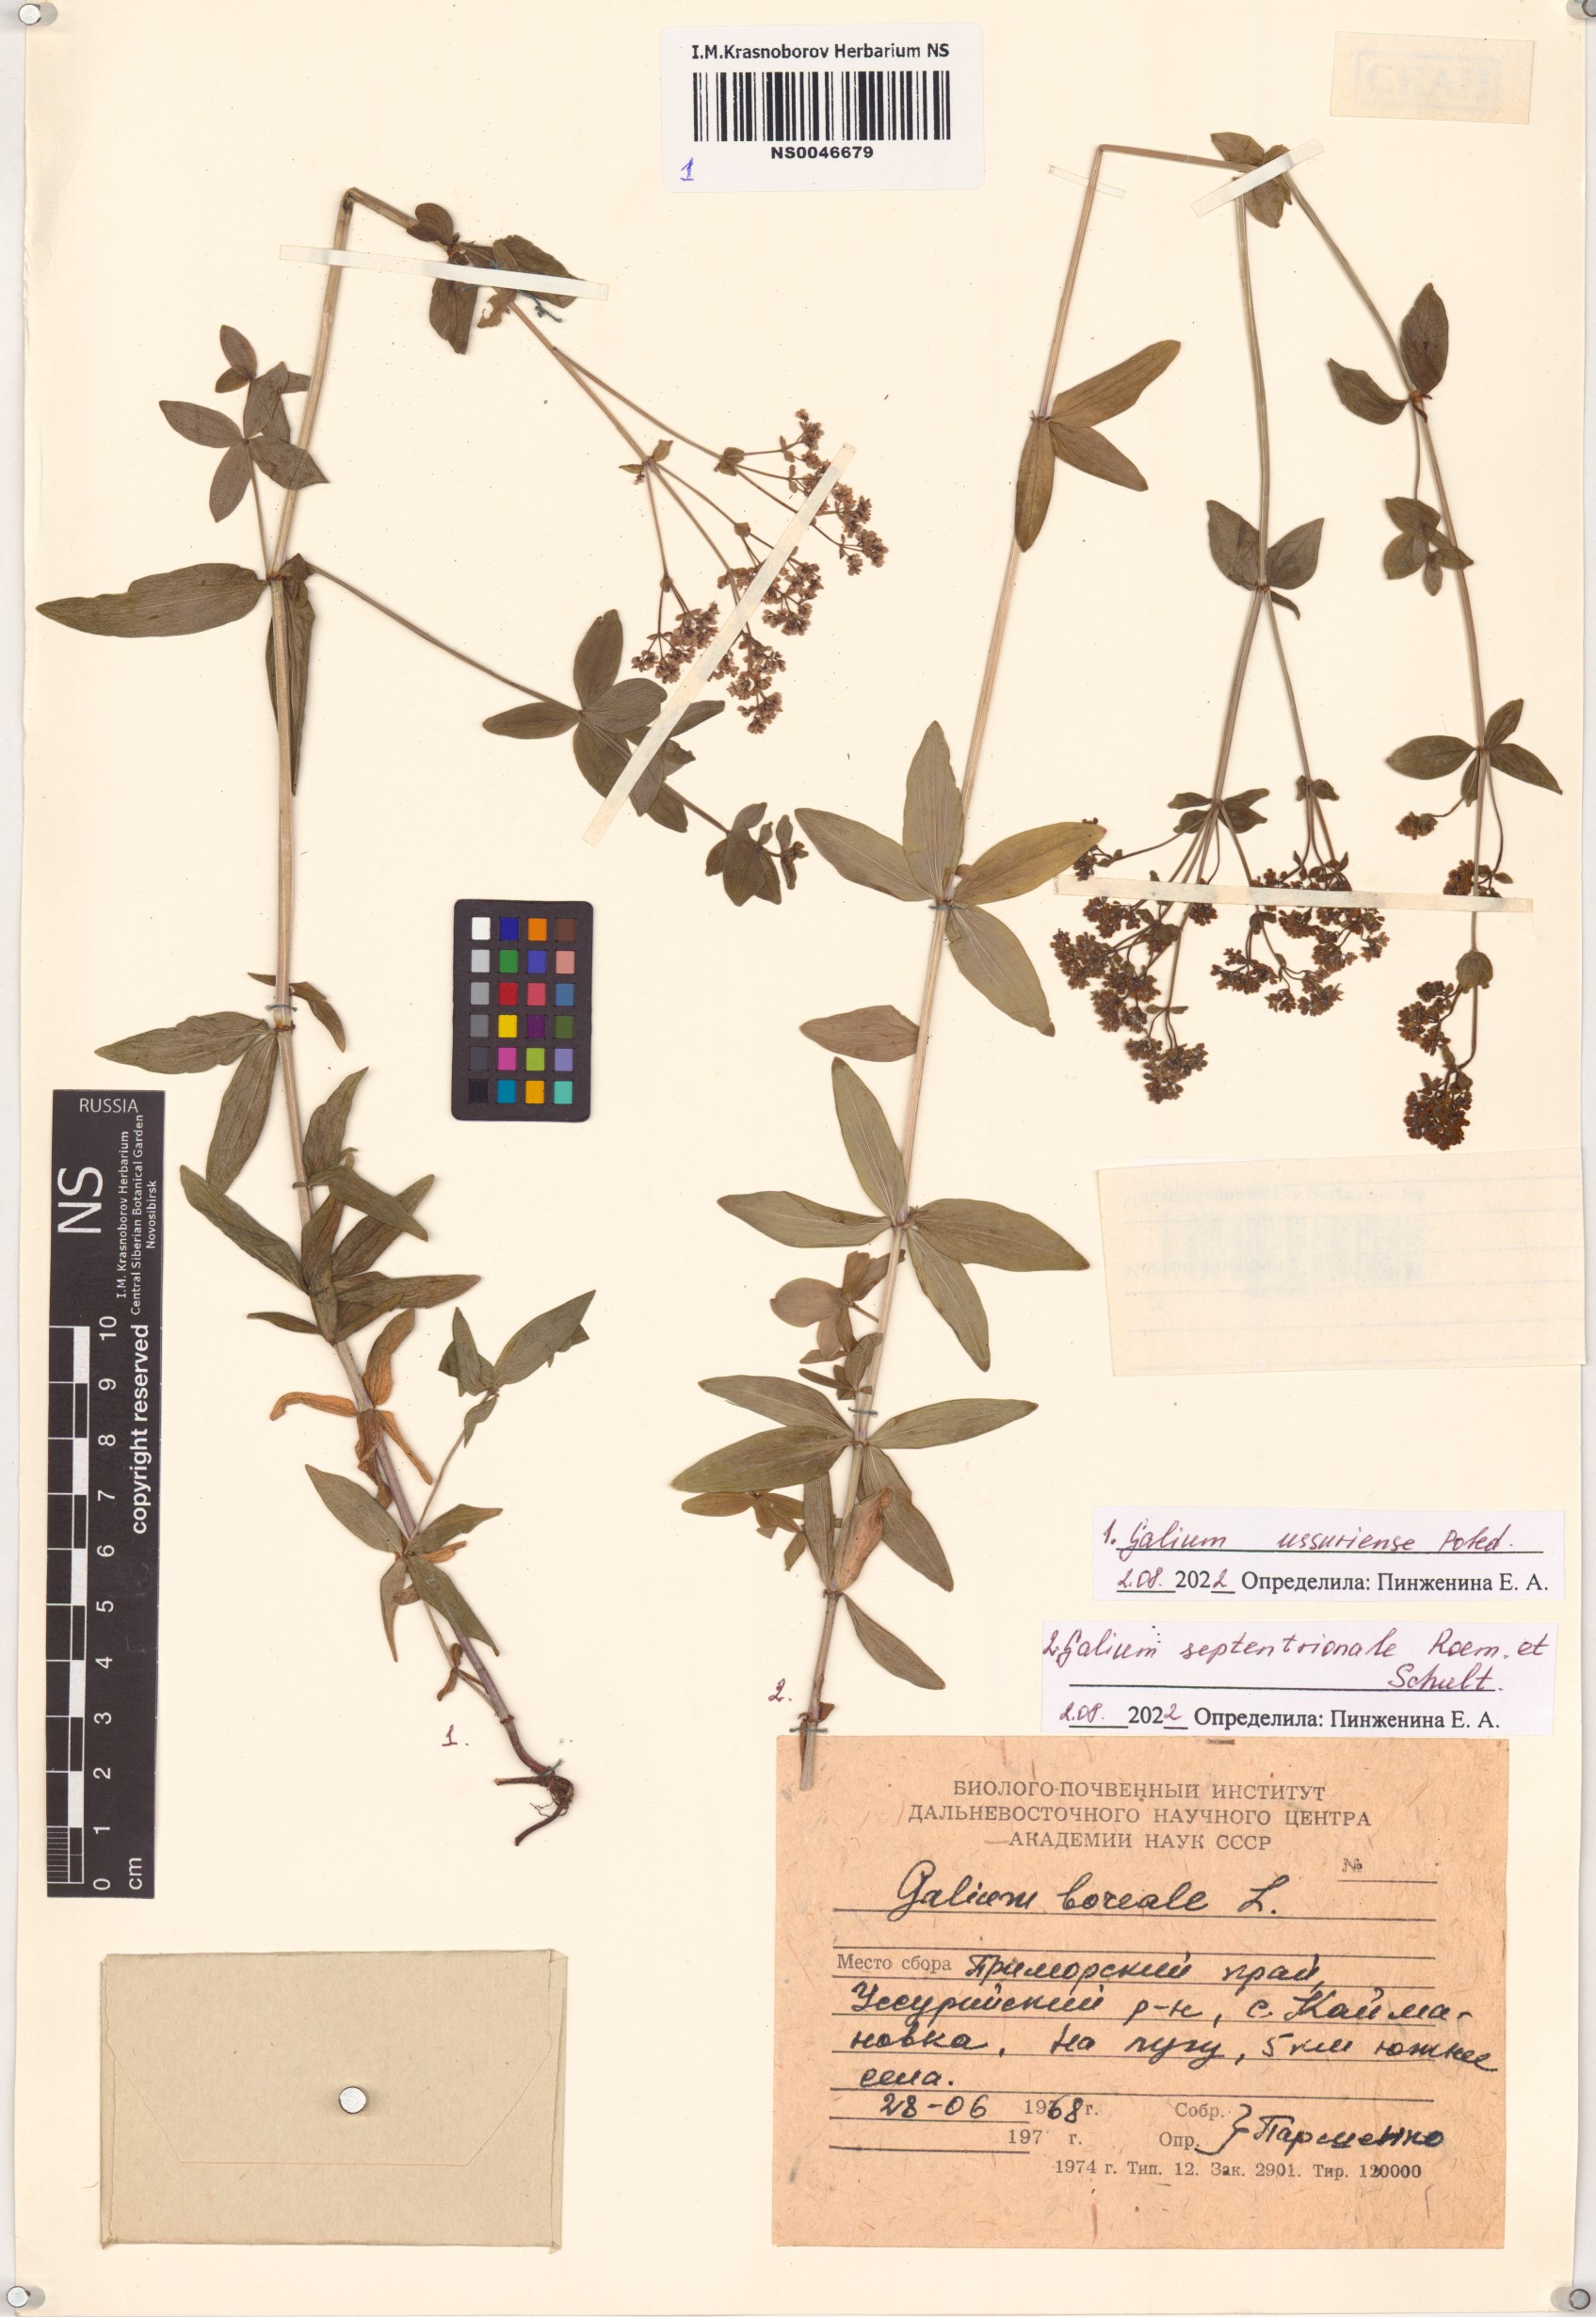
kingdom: Plantae
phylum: Tracheophyta
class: Magnoliopsida
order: Gentianales
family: Rubiaceae
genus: Galium
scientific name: Galium boreale
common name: Northern bedstraw
